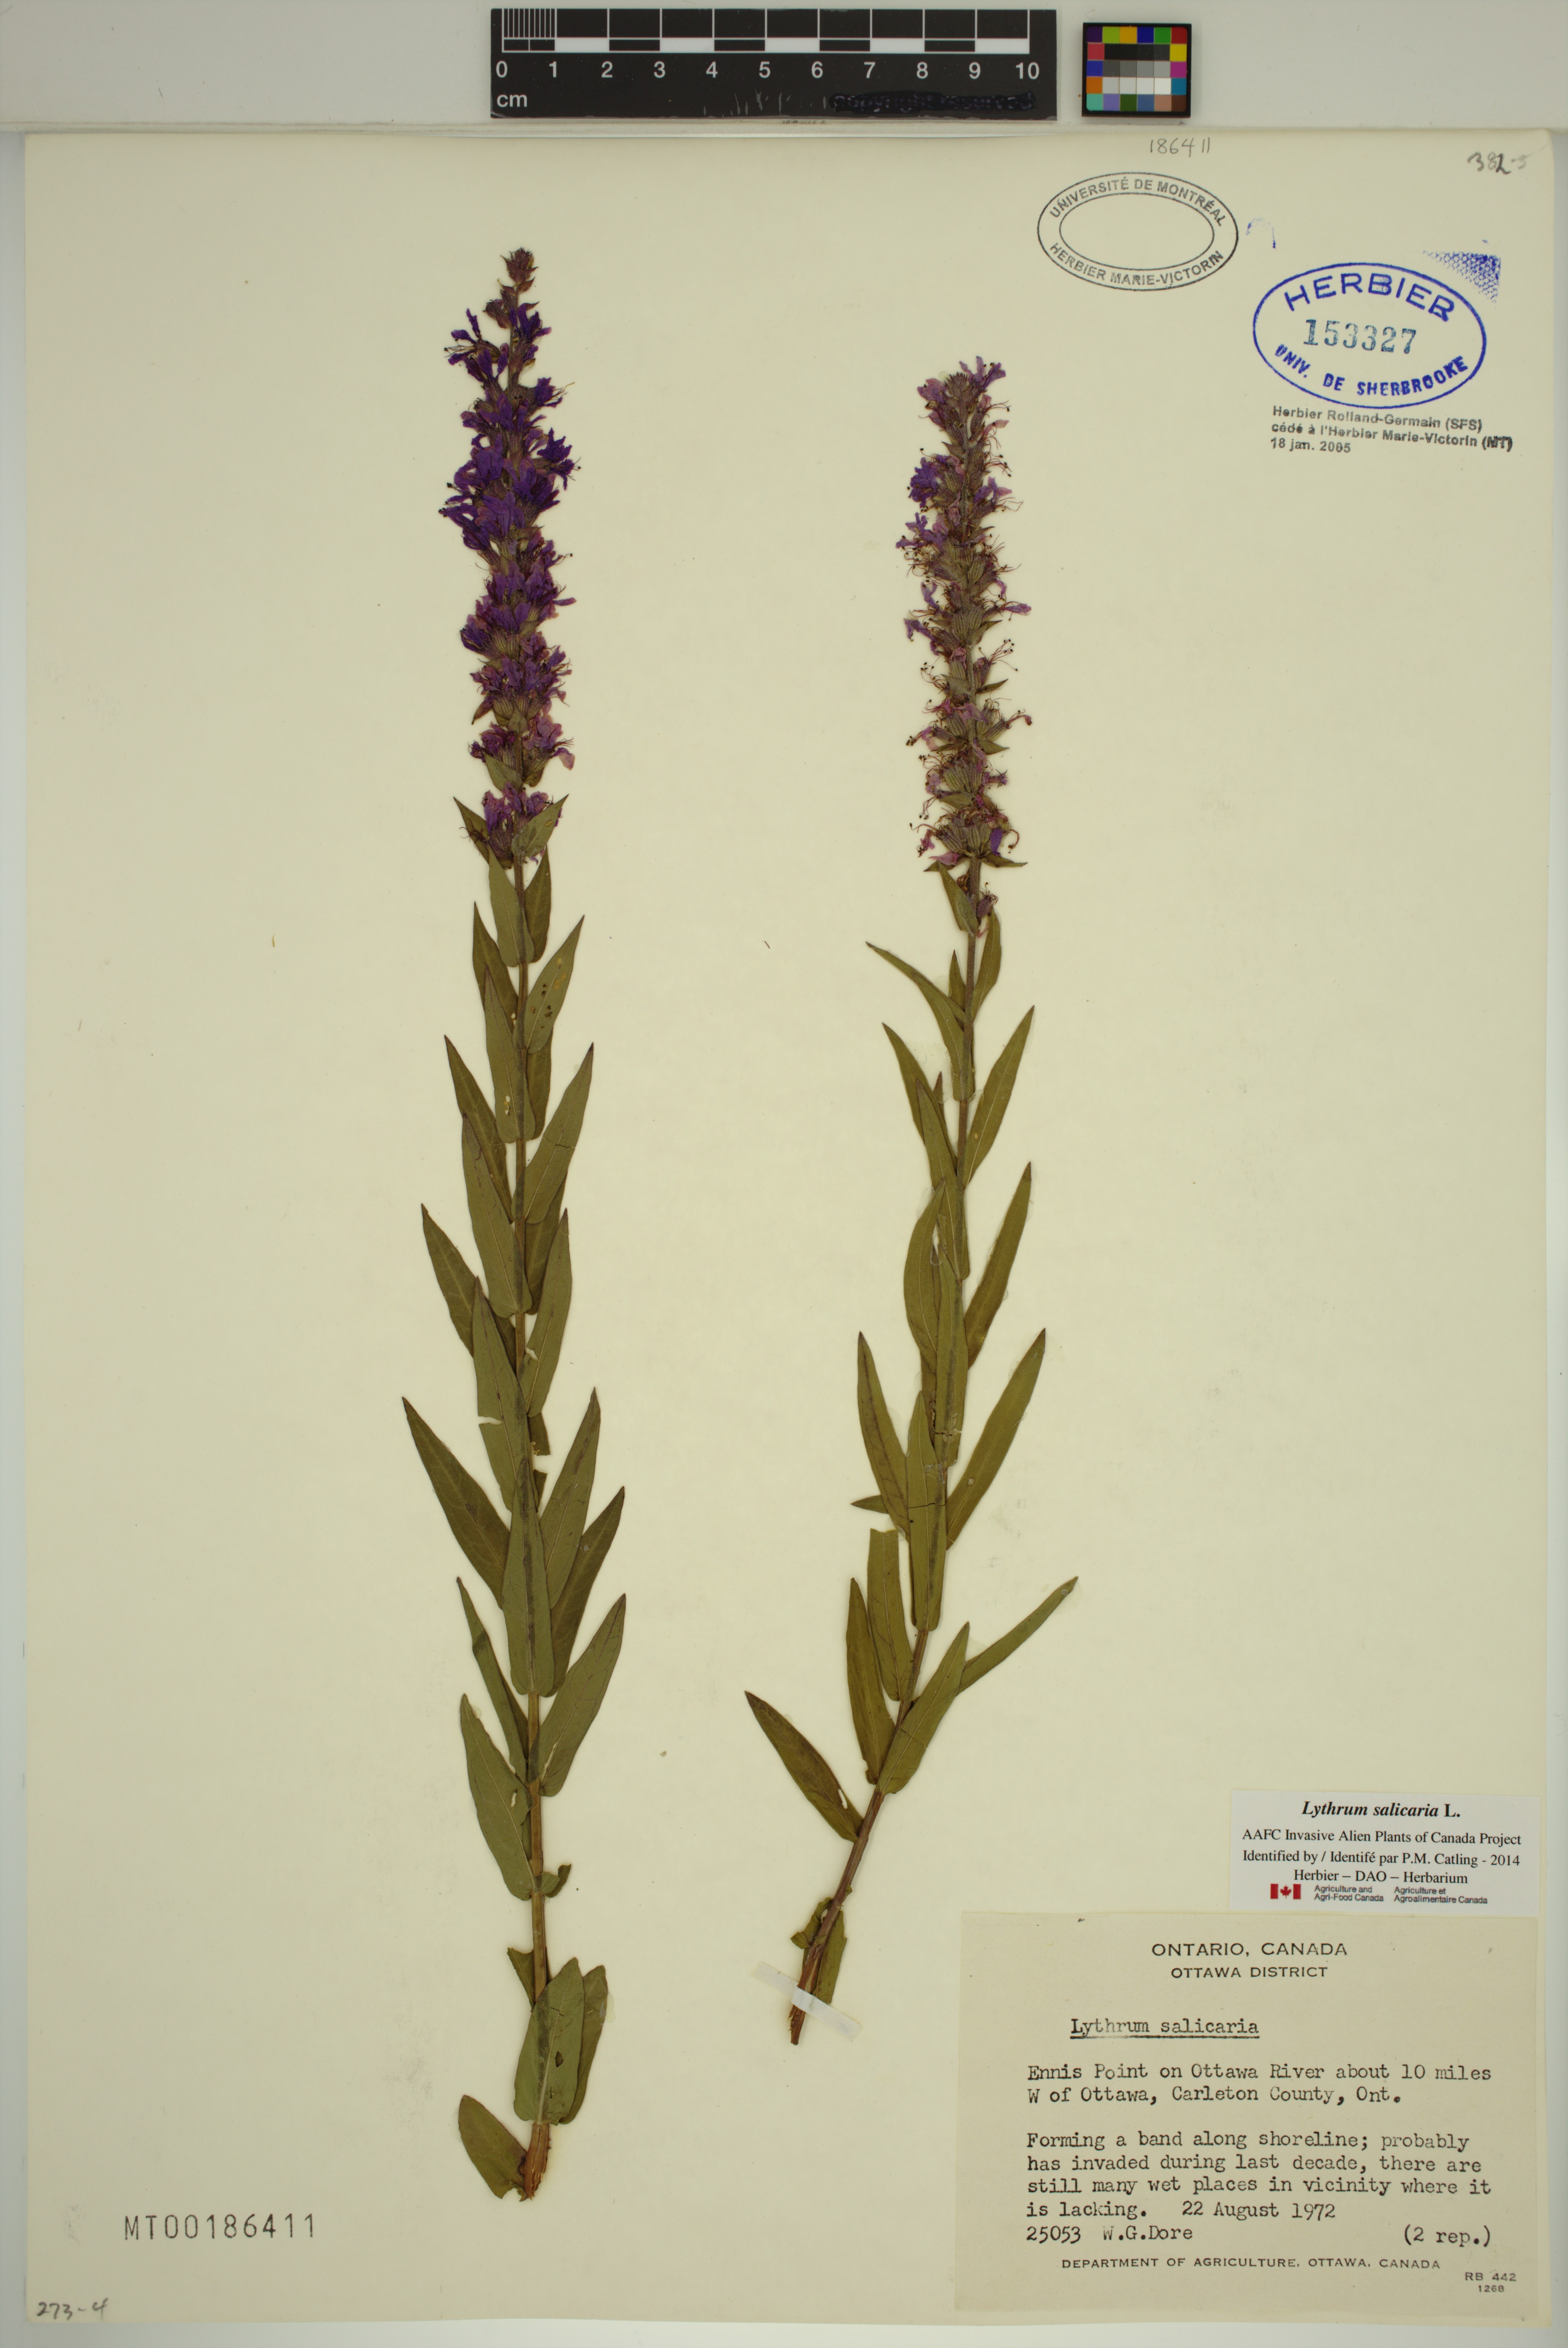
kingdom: Plantae
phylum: Tracheophyta
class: Magnoliopsida
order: Myrtales
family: Lythraceae
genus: Lythrum
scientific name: Lythrum salicaria
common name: Purple loosestrife
